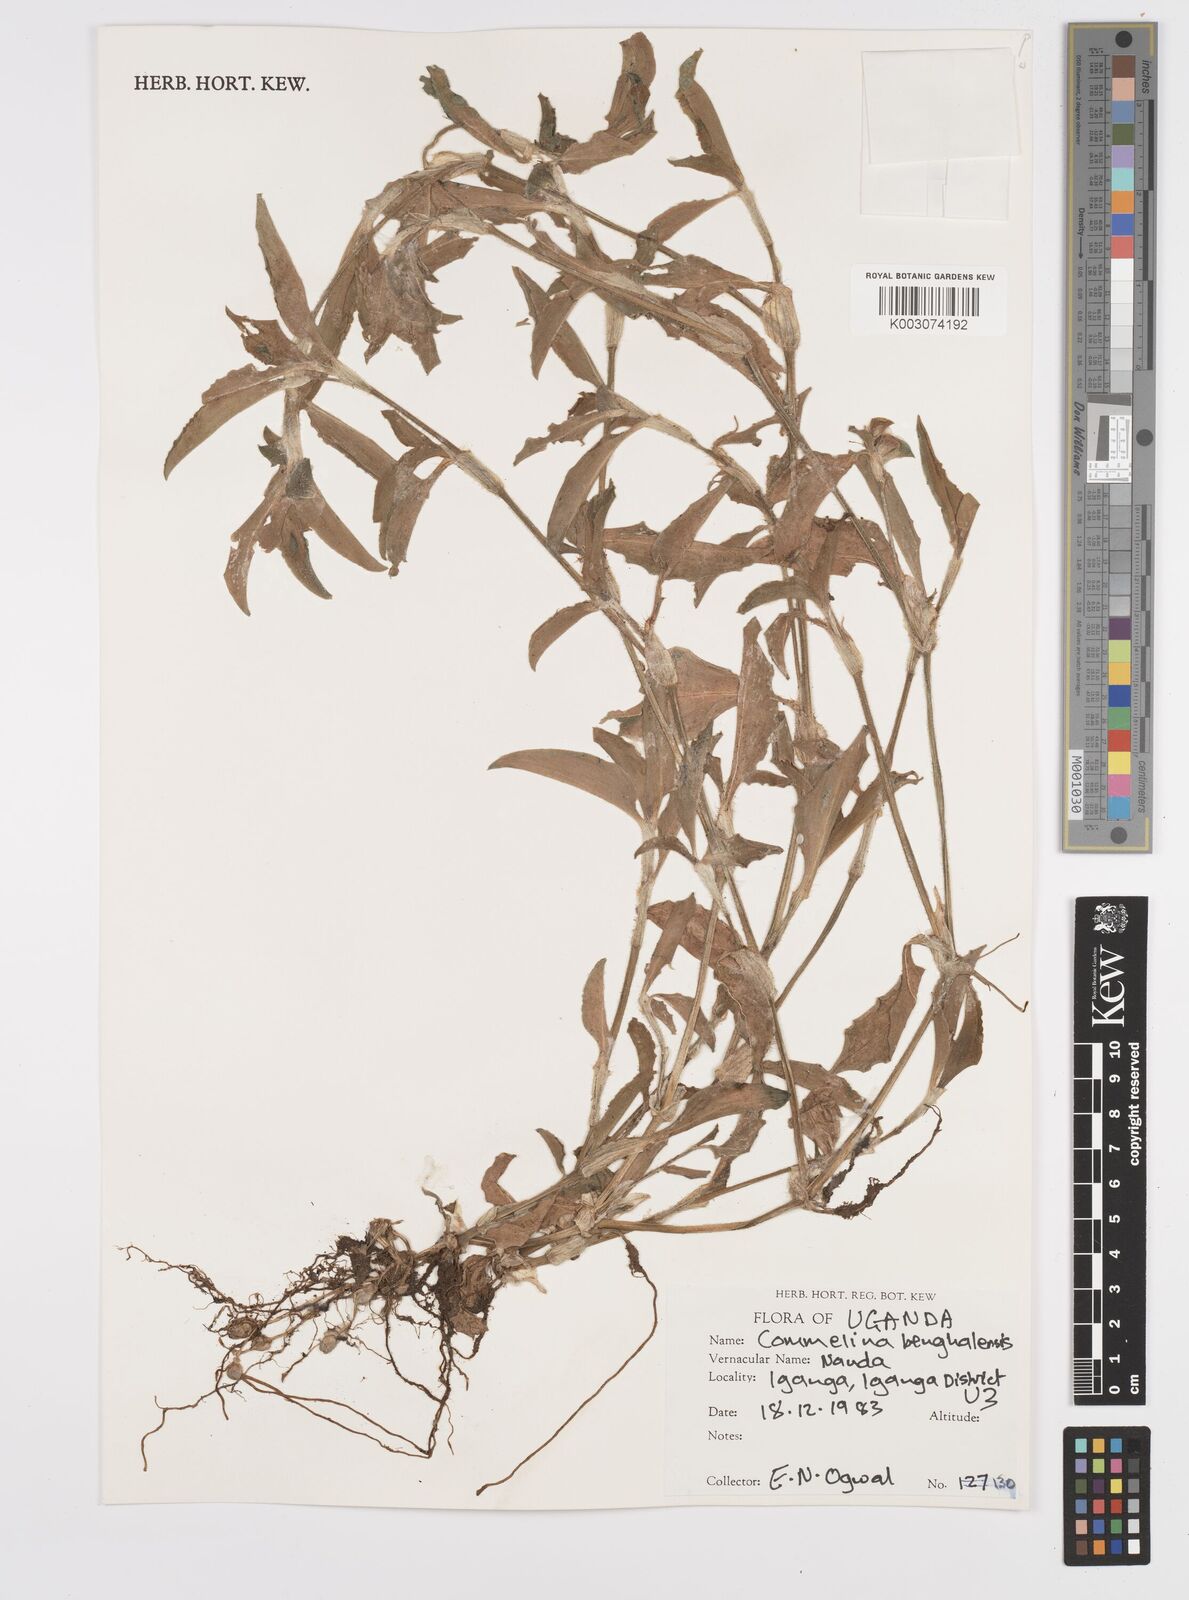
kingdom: Plantae
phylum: Tracheophyta
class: Liliopsida
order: Commelinales
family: Commelinaceae
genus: Commelina
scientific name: Commelina benghalensis
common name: Jio
